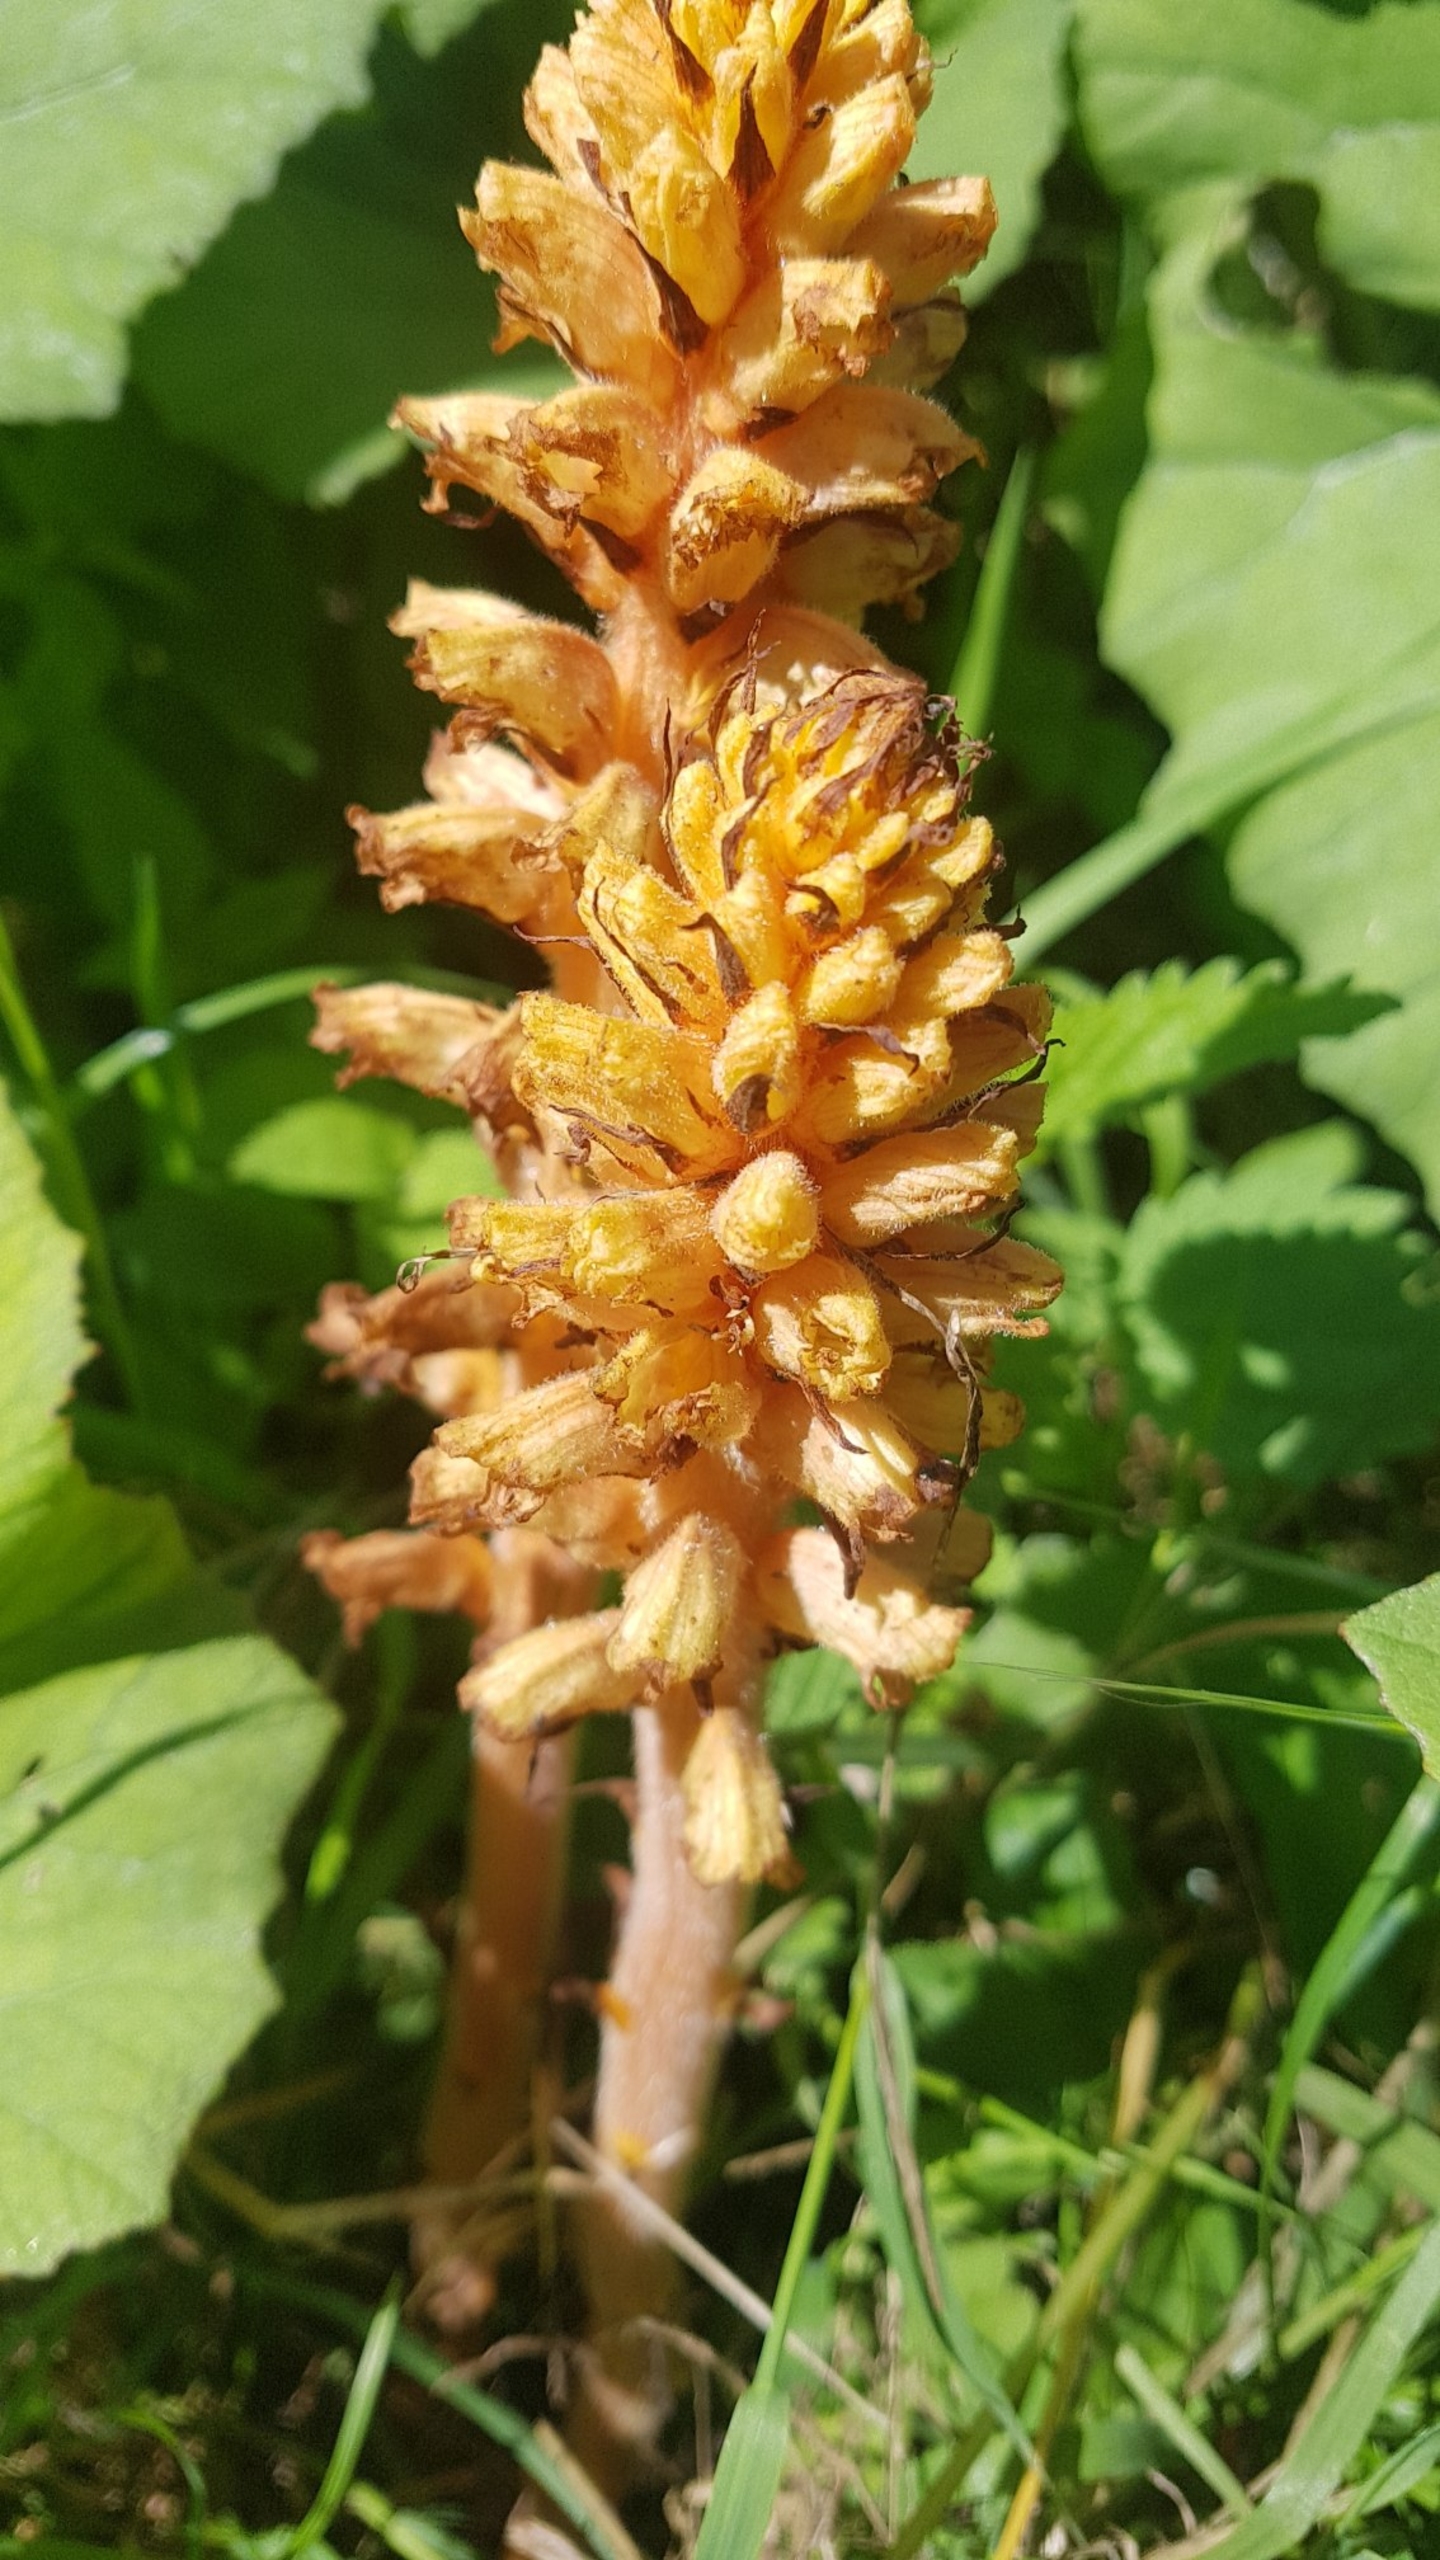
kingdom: Plantae
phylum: Tracheophyta
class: Magnoliopsida
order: Lamiales
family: Orobanchaceae
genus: Orobanche
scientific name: Orobanche flava
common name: Gul gyvelkvæler
